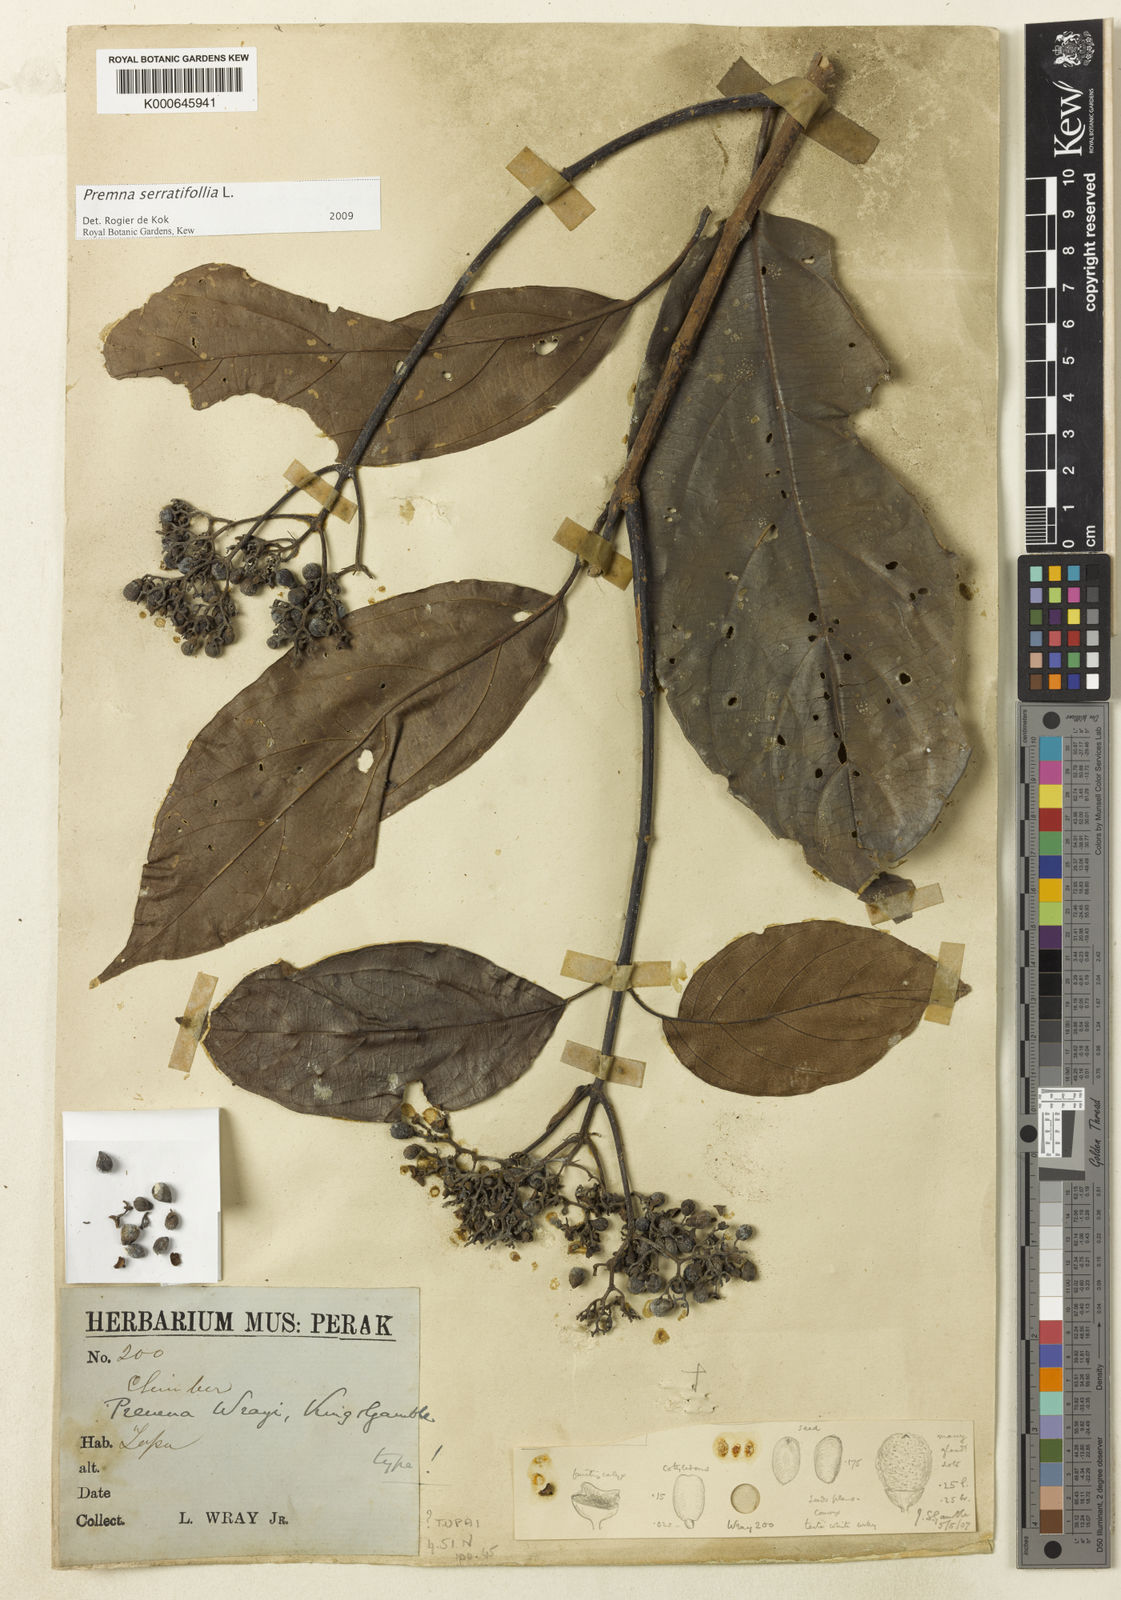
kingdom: Plantae
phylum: Tracheophyta
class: Magnoliopsida
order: Lamiales
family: Lamiaceae
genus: Premna
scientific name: Premna serratifolia
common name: Bastard guelder
